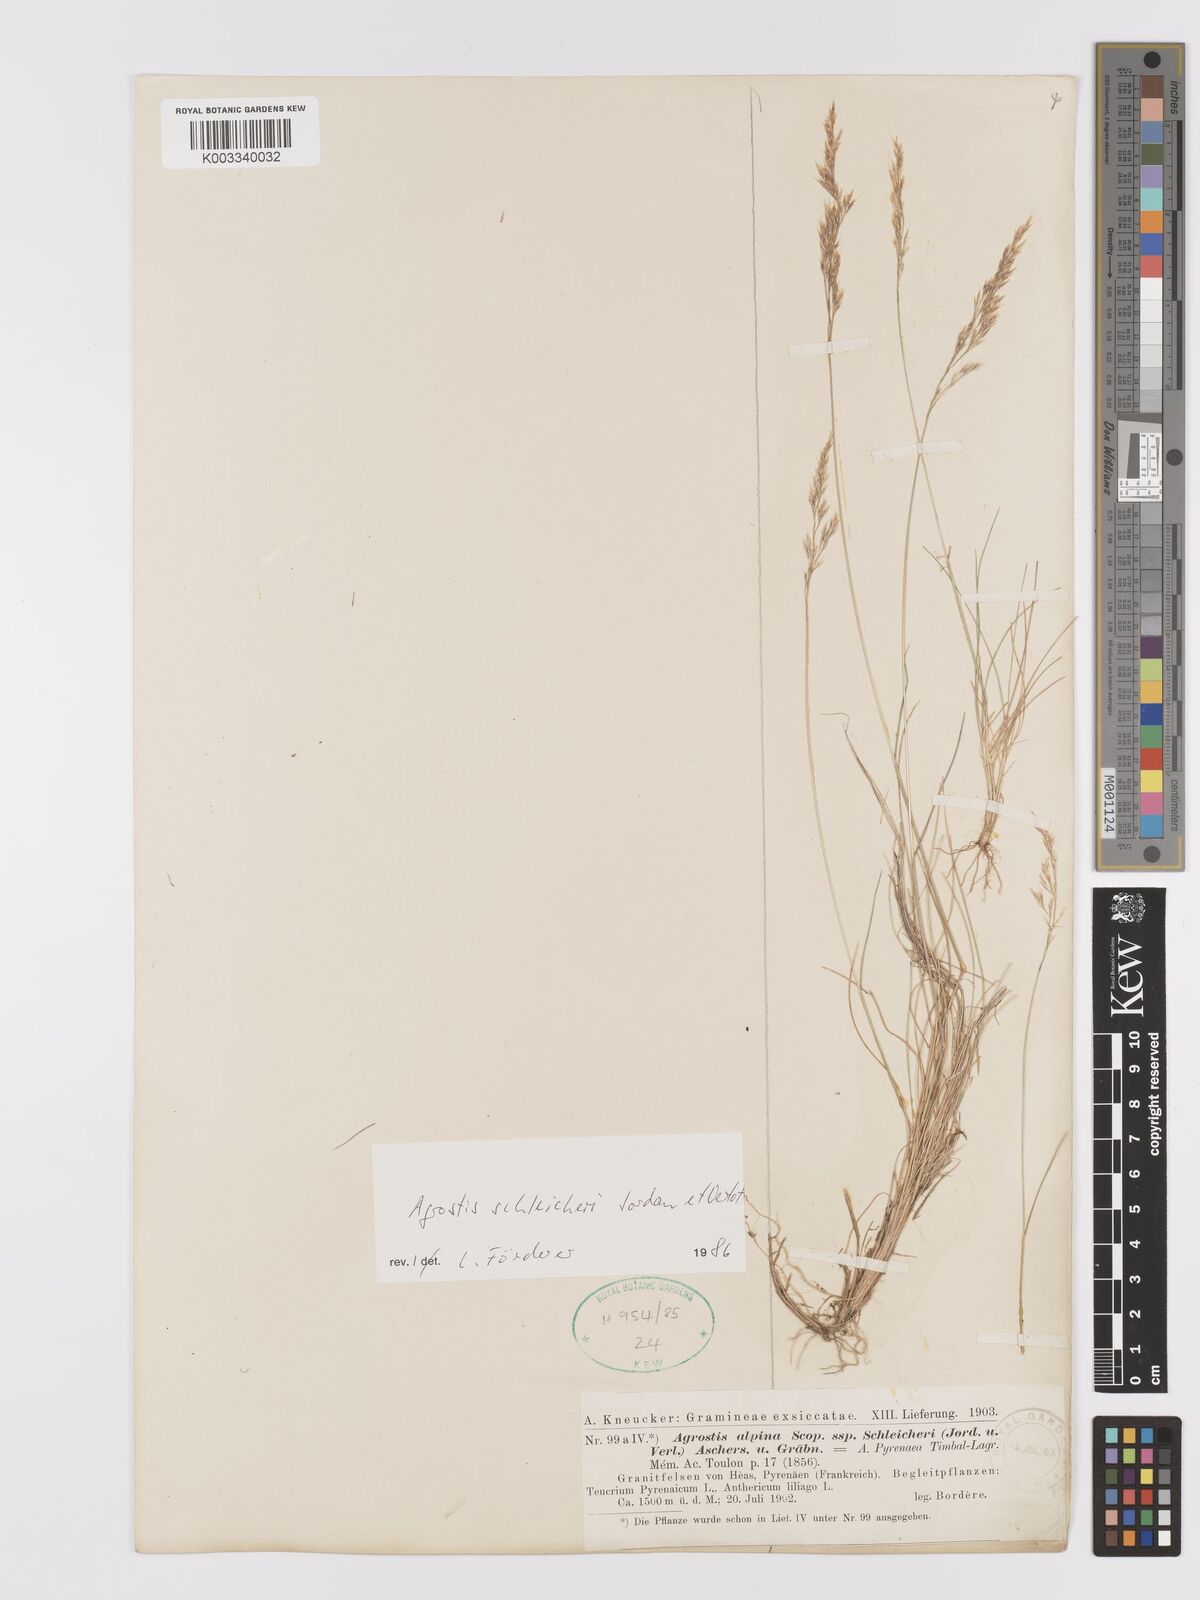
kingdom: Plantae
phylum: Tracheophyta
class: Liliopsida
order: Poales
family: Poaceae
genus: Alpagrostis
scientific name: Alpagrostis schleicheri
